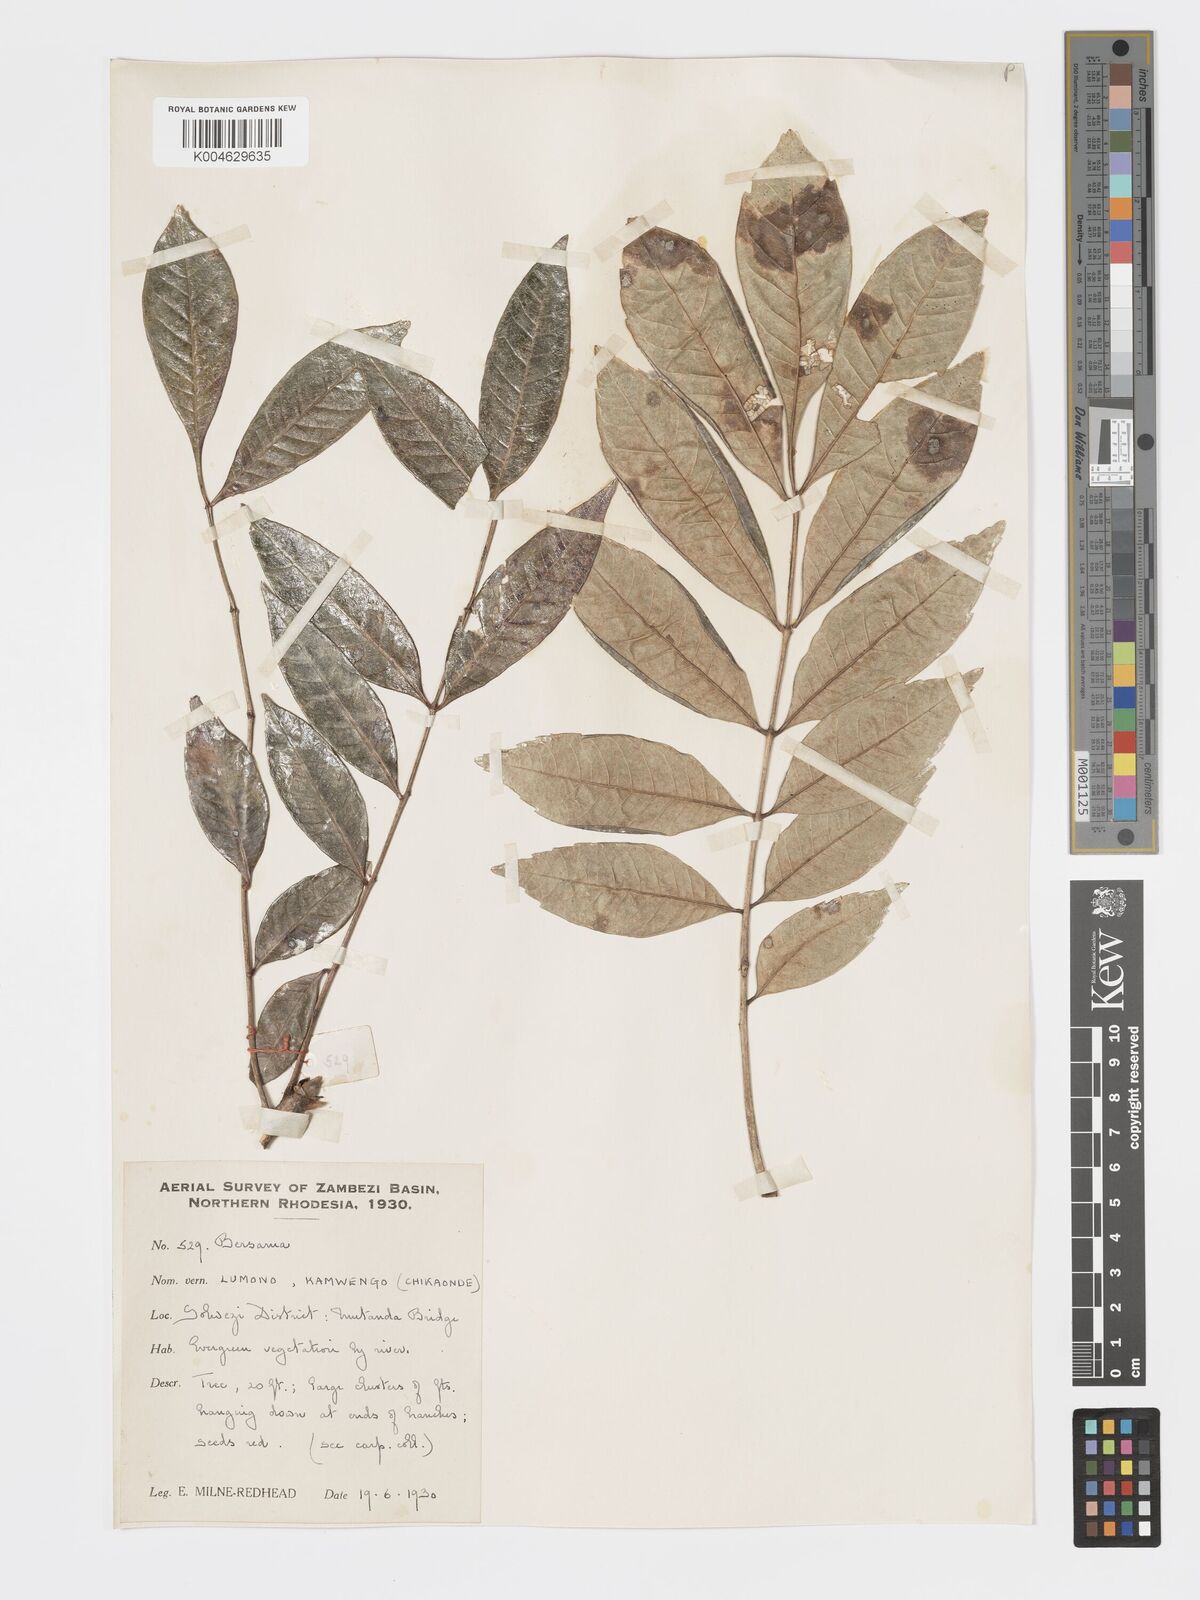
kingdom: Plantae
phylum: Tracheophyta
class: Magnoliopsida
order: Geraniales
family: Melianthaceae
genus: Bersama
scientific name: Bersama
